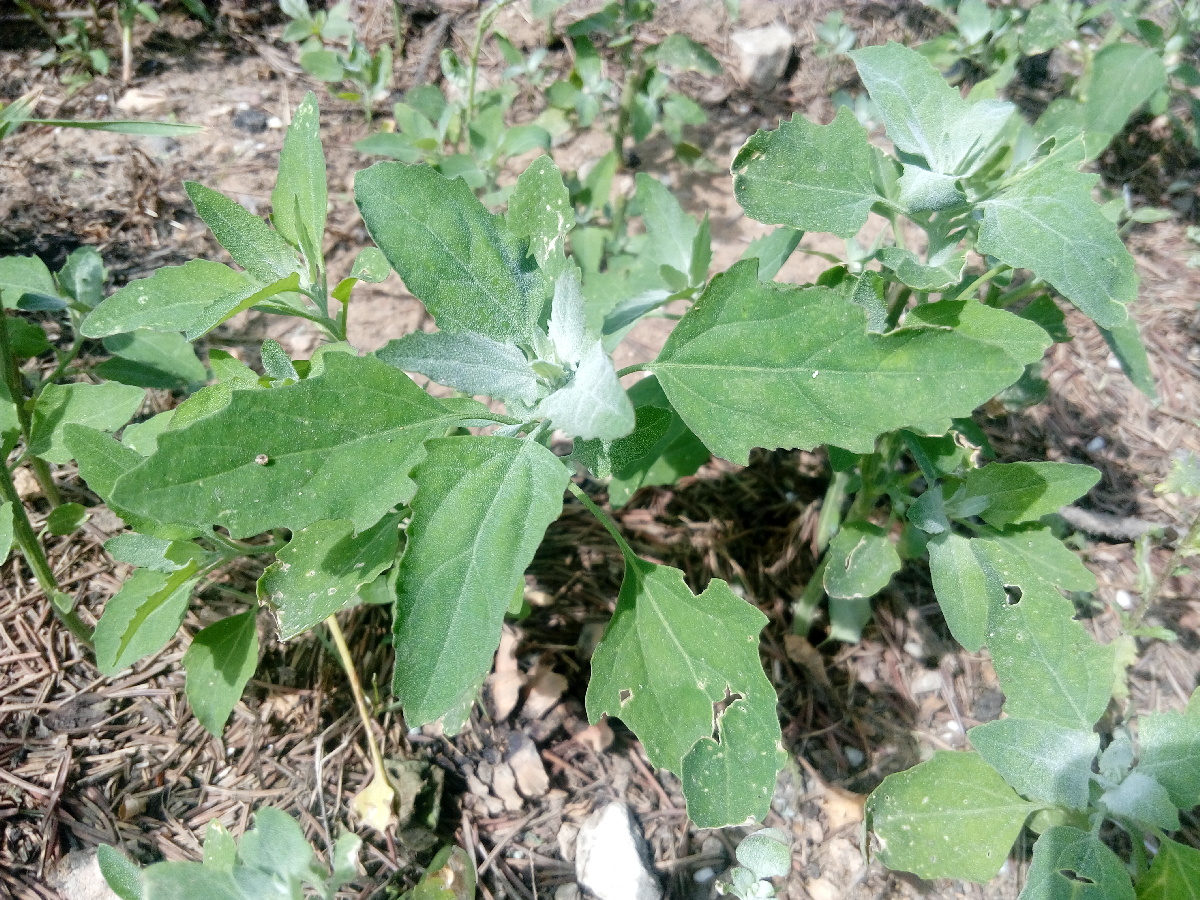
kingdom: Plantae
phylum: Tracheophyta
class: Magnoliopsida
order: Caryophyllales
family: Amaranthaceae
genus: Chenopodiastrum
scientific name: Chenopodiastrum hybridum
